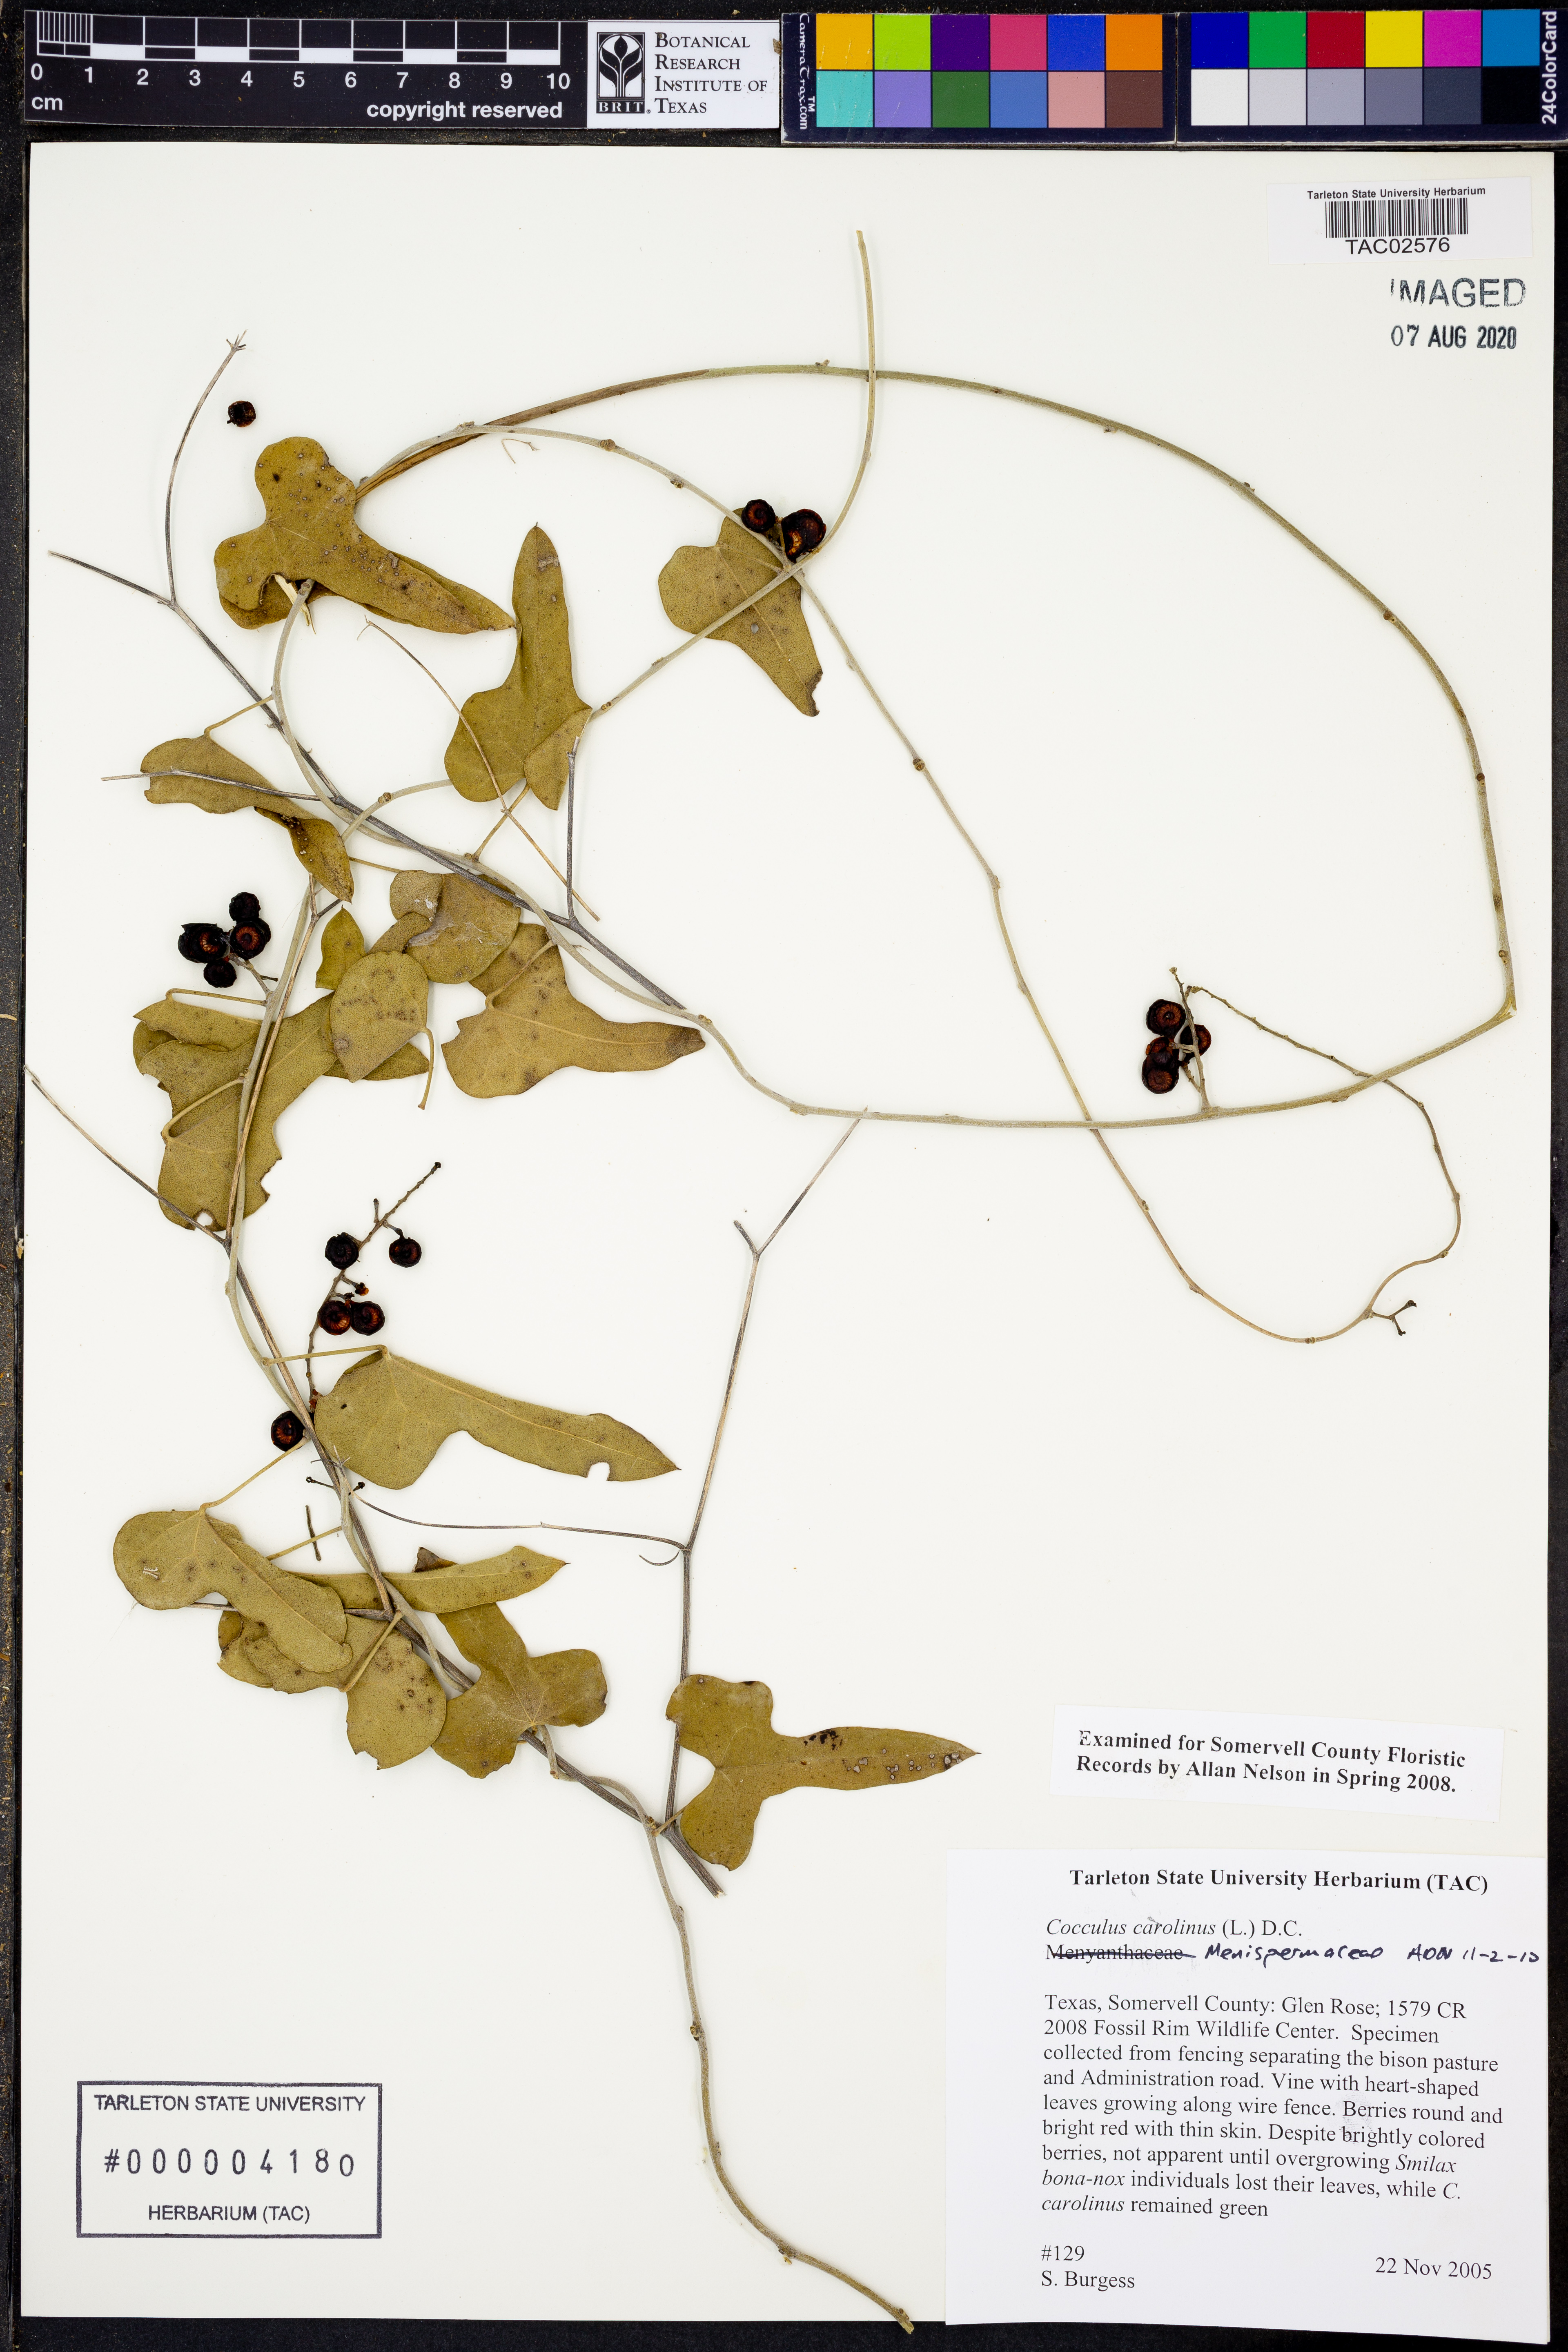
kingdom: Plantae
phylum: Tracheophyta
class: Magnoliopsida
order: Ranunculales
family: Menispermaceae
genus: Cocculus
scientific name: Cocculus carolinus
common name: Carolina moonseed
